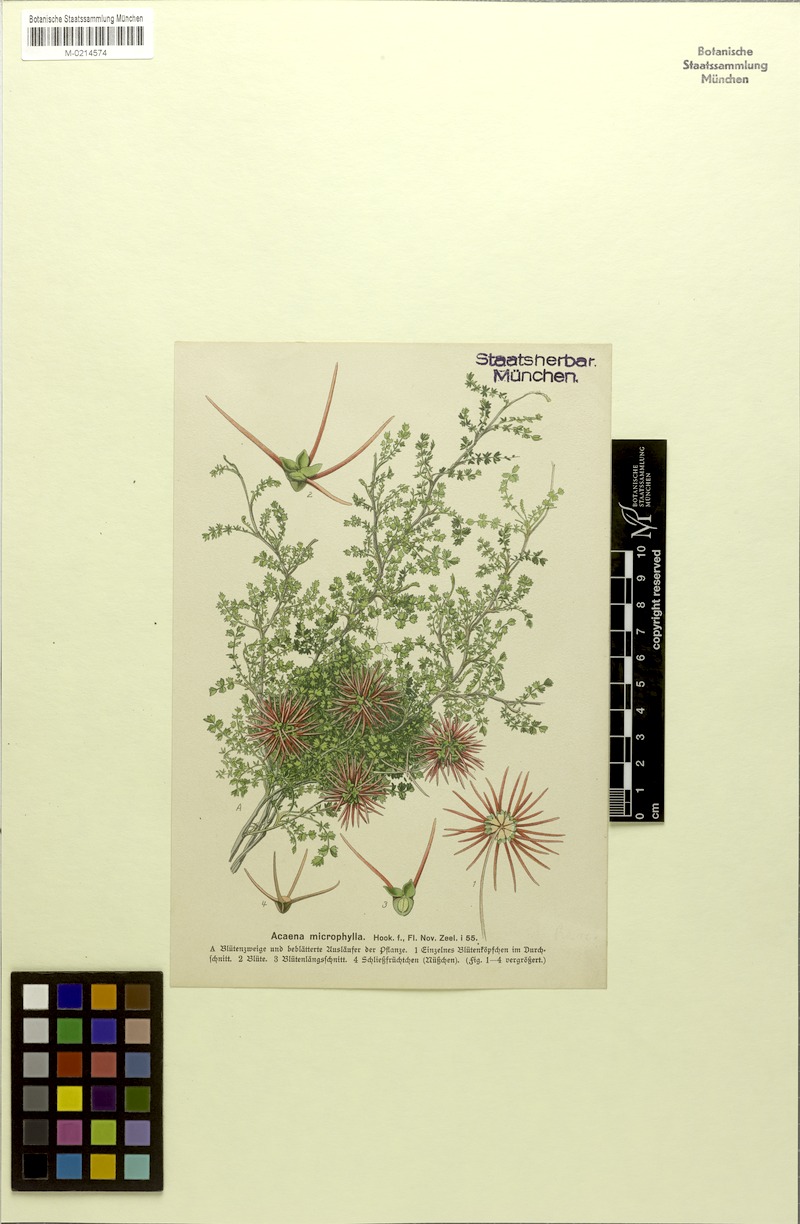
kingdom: Plantae
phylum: Tracheophyta
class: Magnoliopsida
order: Rosales
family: Rosaceae
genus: Acaena
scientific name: Acaena microphylla
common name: New zealand-bur
